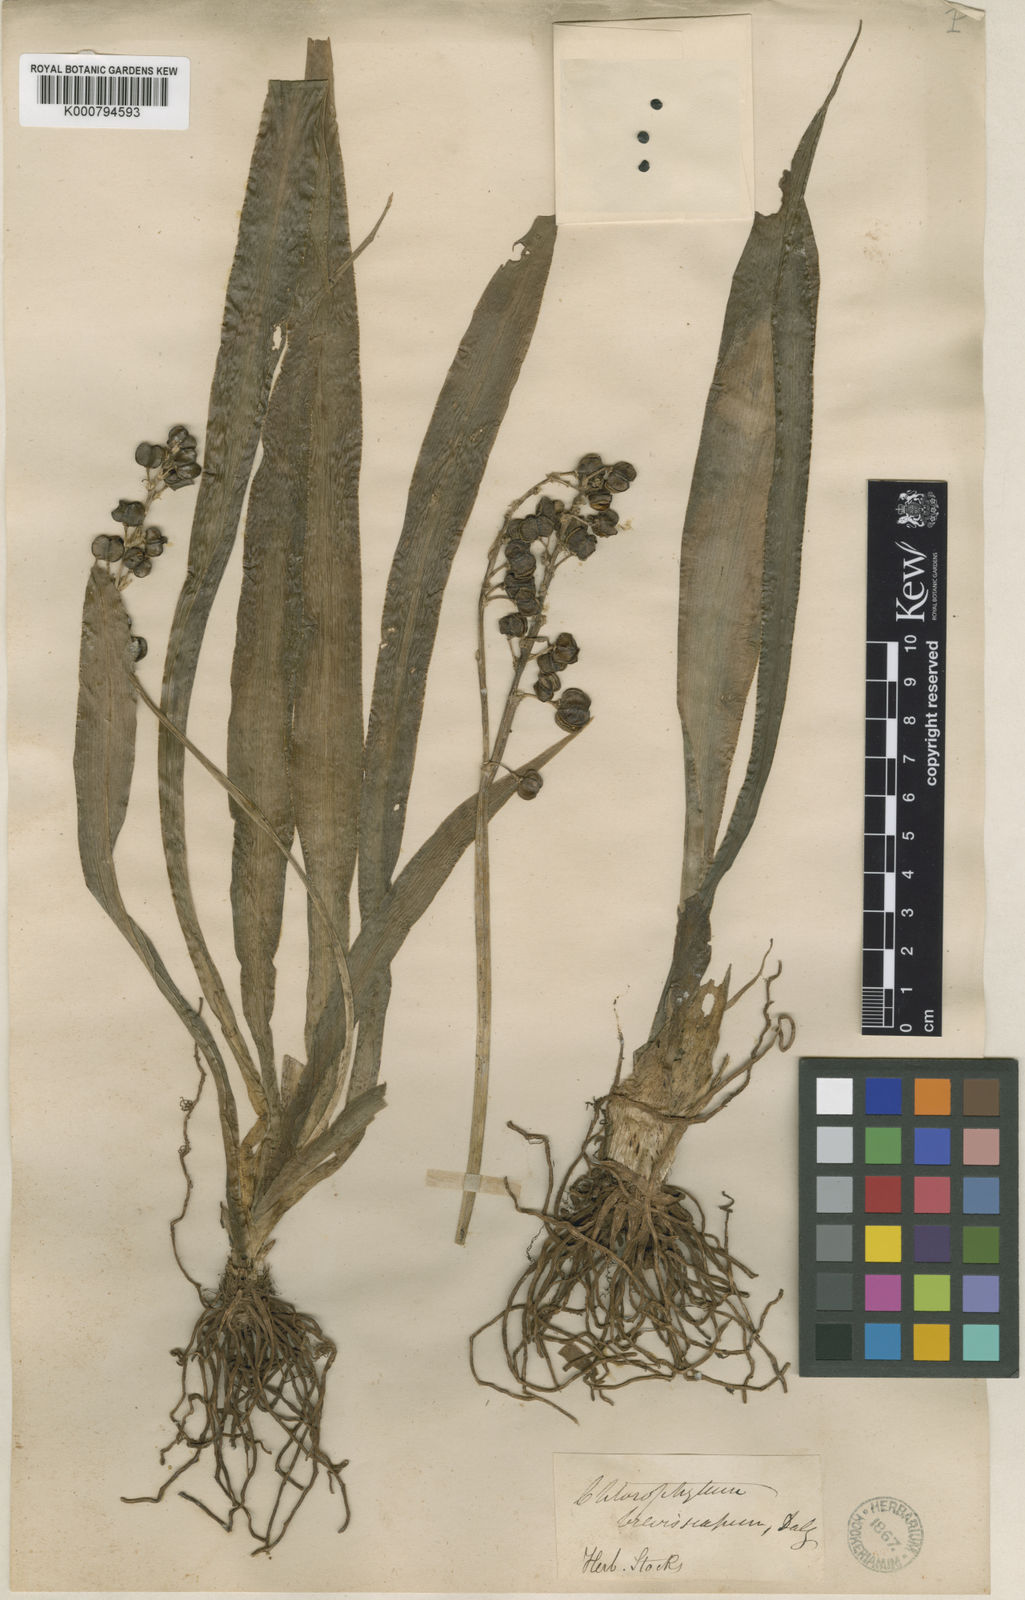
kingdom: Plantae
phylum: Tracheophyta
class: Liliopsida
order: Asparagales
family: Asparagaceae
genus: Chlorophytum
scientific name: Chlorophytum breviscapum
